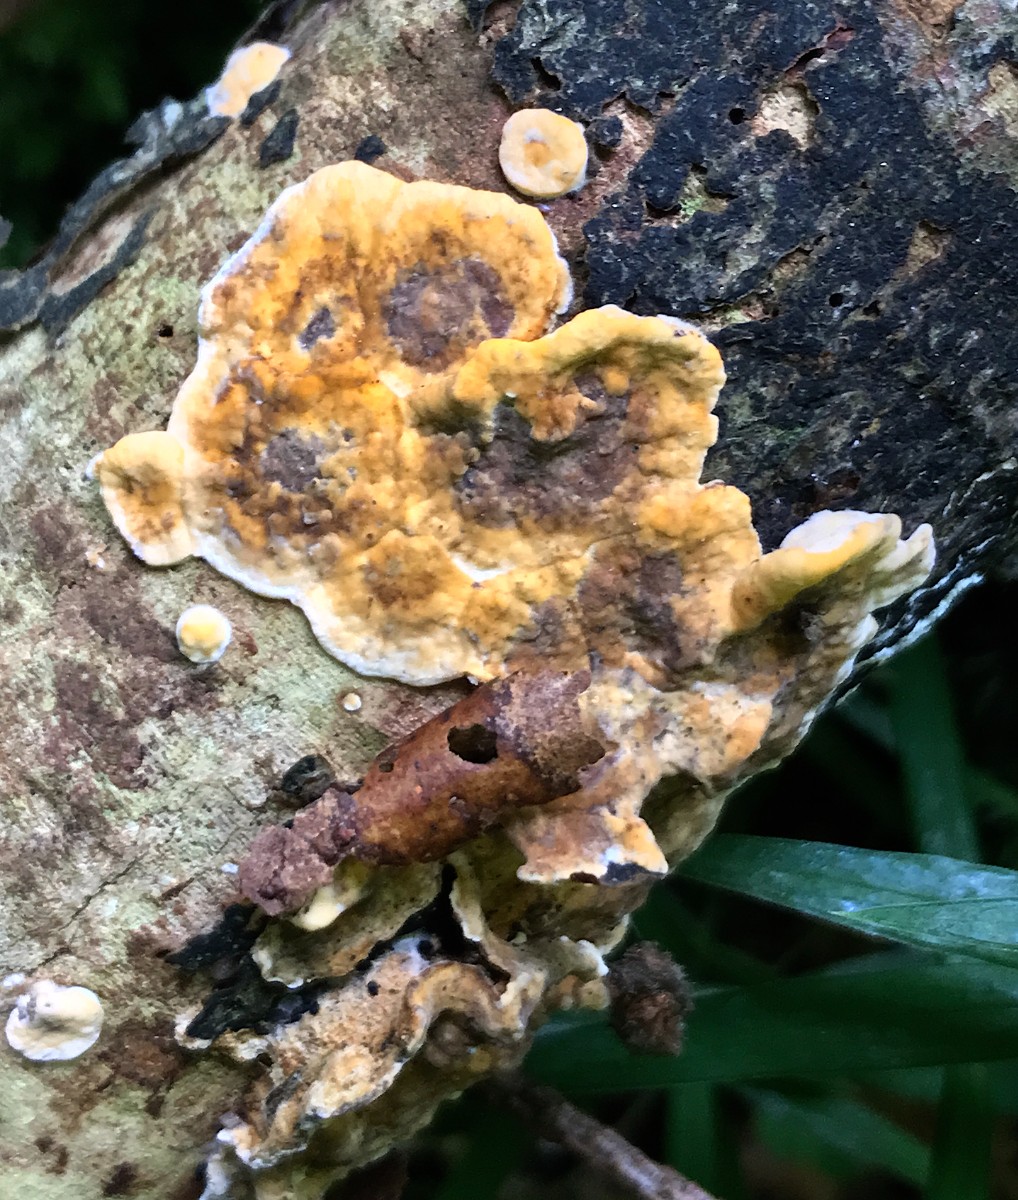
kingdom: Fungi
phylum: Basidiomycota
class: Agaricomycetes
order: Russulales
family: Stereaceae
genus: Stereum
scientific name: Stereum hirsutum
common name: håret lædersvamp
